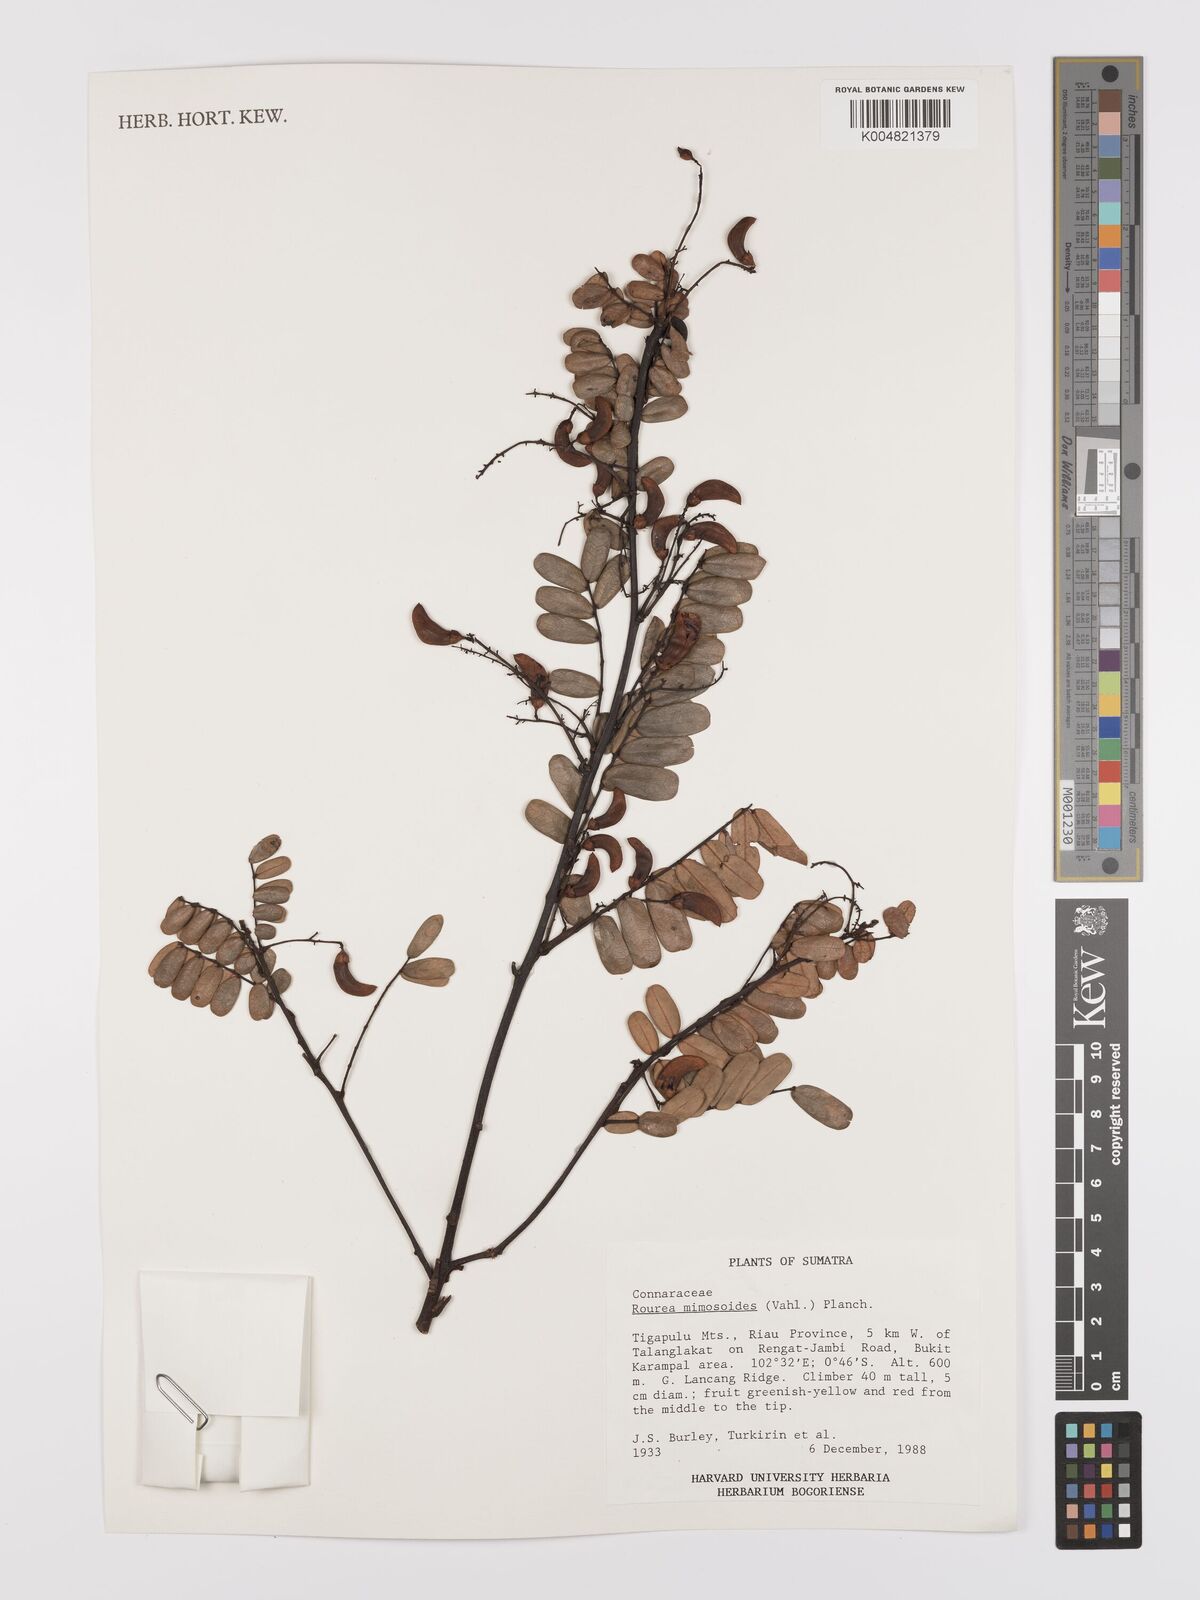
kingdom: Plantae
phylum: Tracheophyta
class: Magnoliopsida
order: Oxalidales
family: Connaraceae
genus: Rourea
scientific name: Rourea mimosoides
